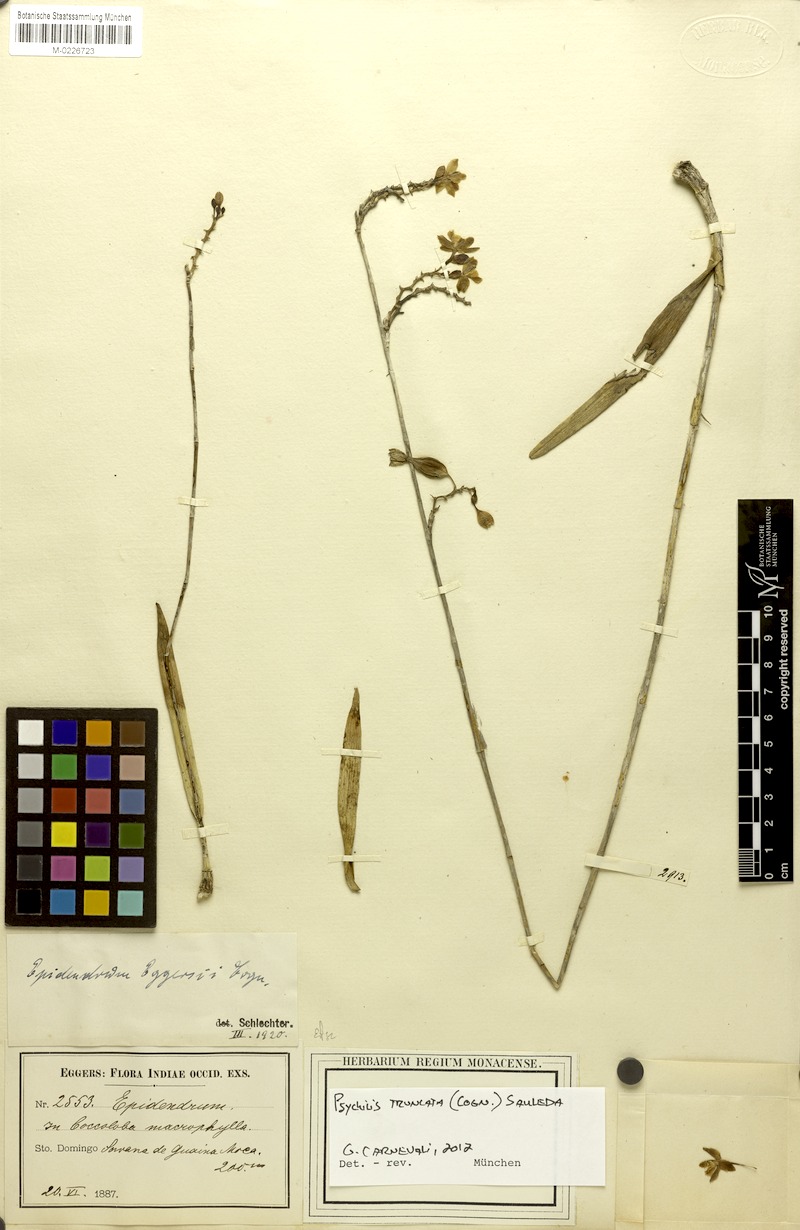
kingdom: Plantae
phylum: Tracheophyta
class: Liliopsida
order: Asparagales
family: Orchidaceae
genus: Psychilis
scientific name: Psychilis truncata
